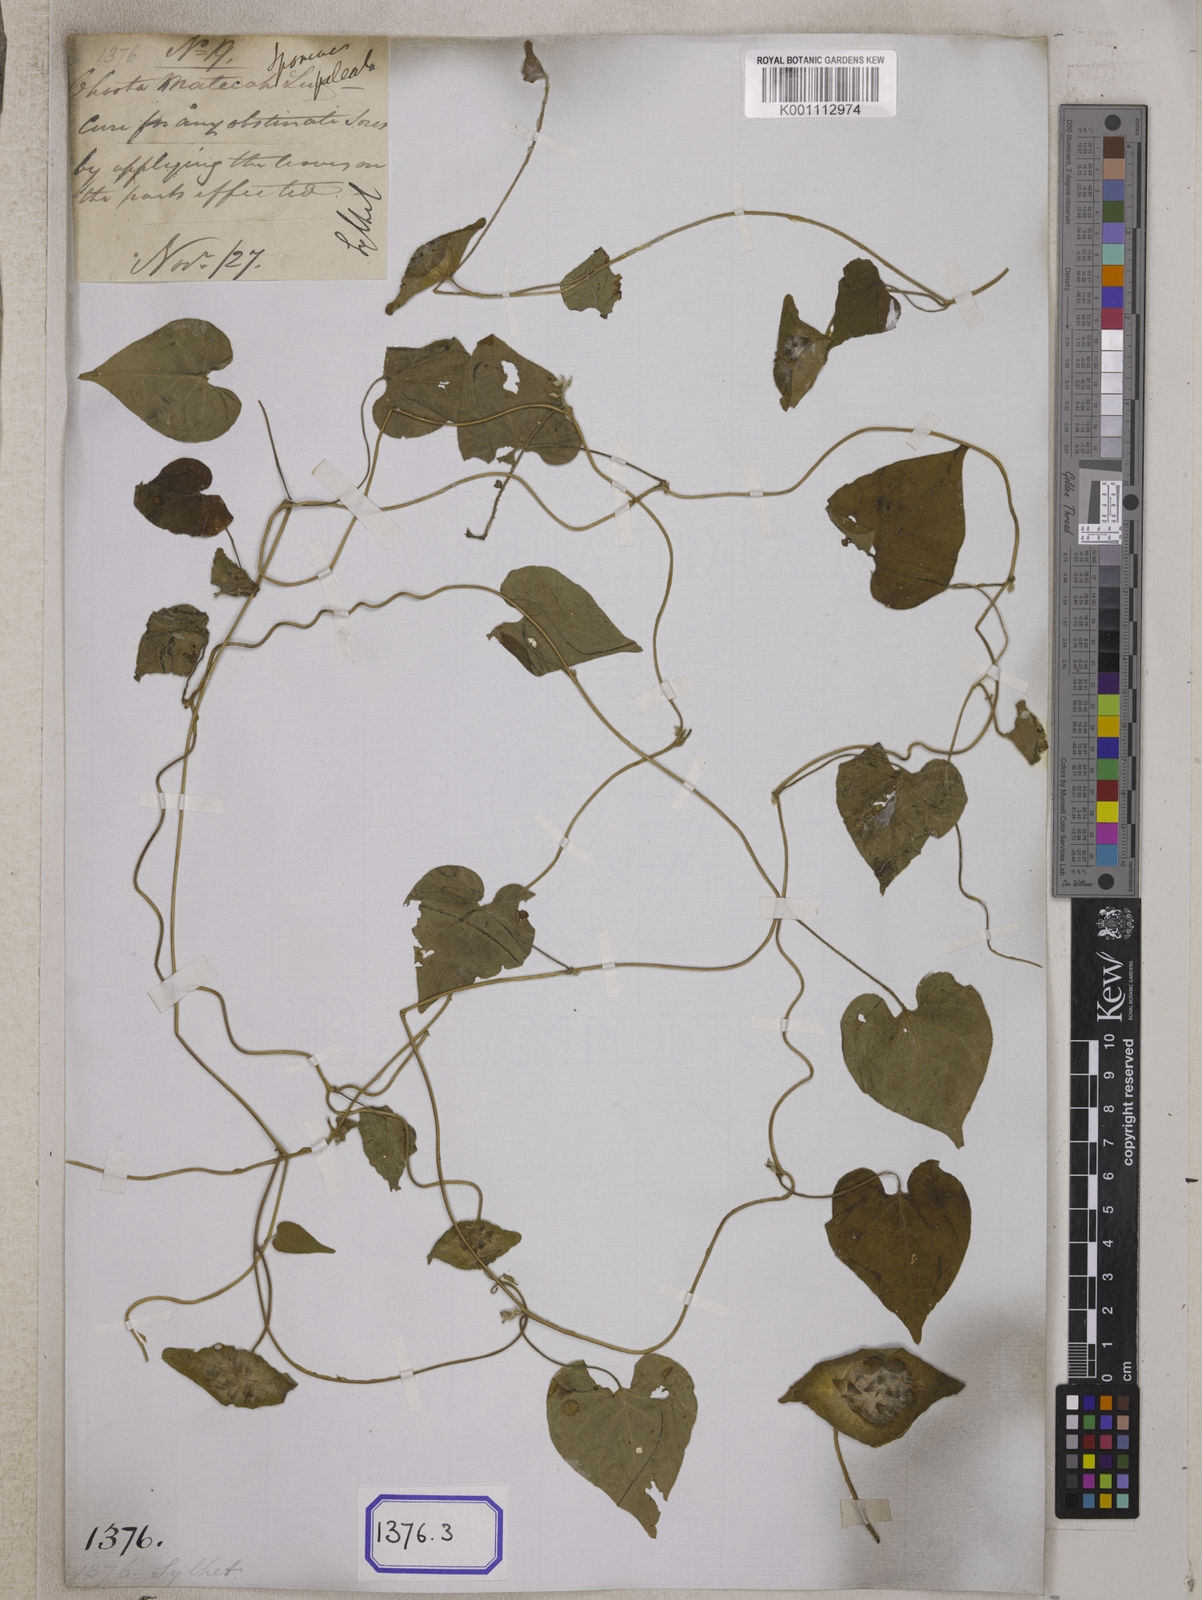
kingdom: Plantae
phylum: Tracheophyta
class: Magnoliopsida
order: Solanales
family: Convolvulaceae
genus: Ipomoea
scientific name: Ipomoea pileata
